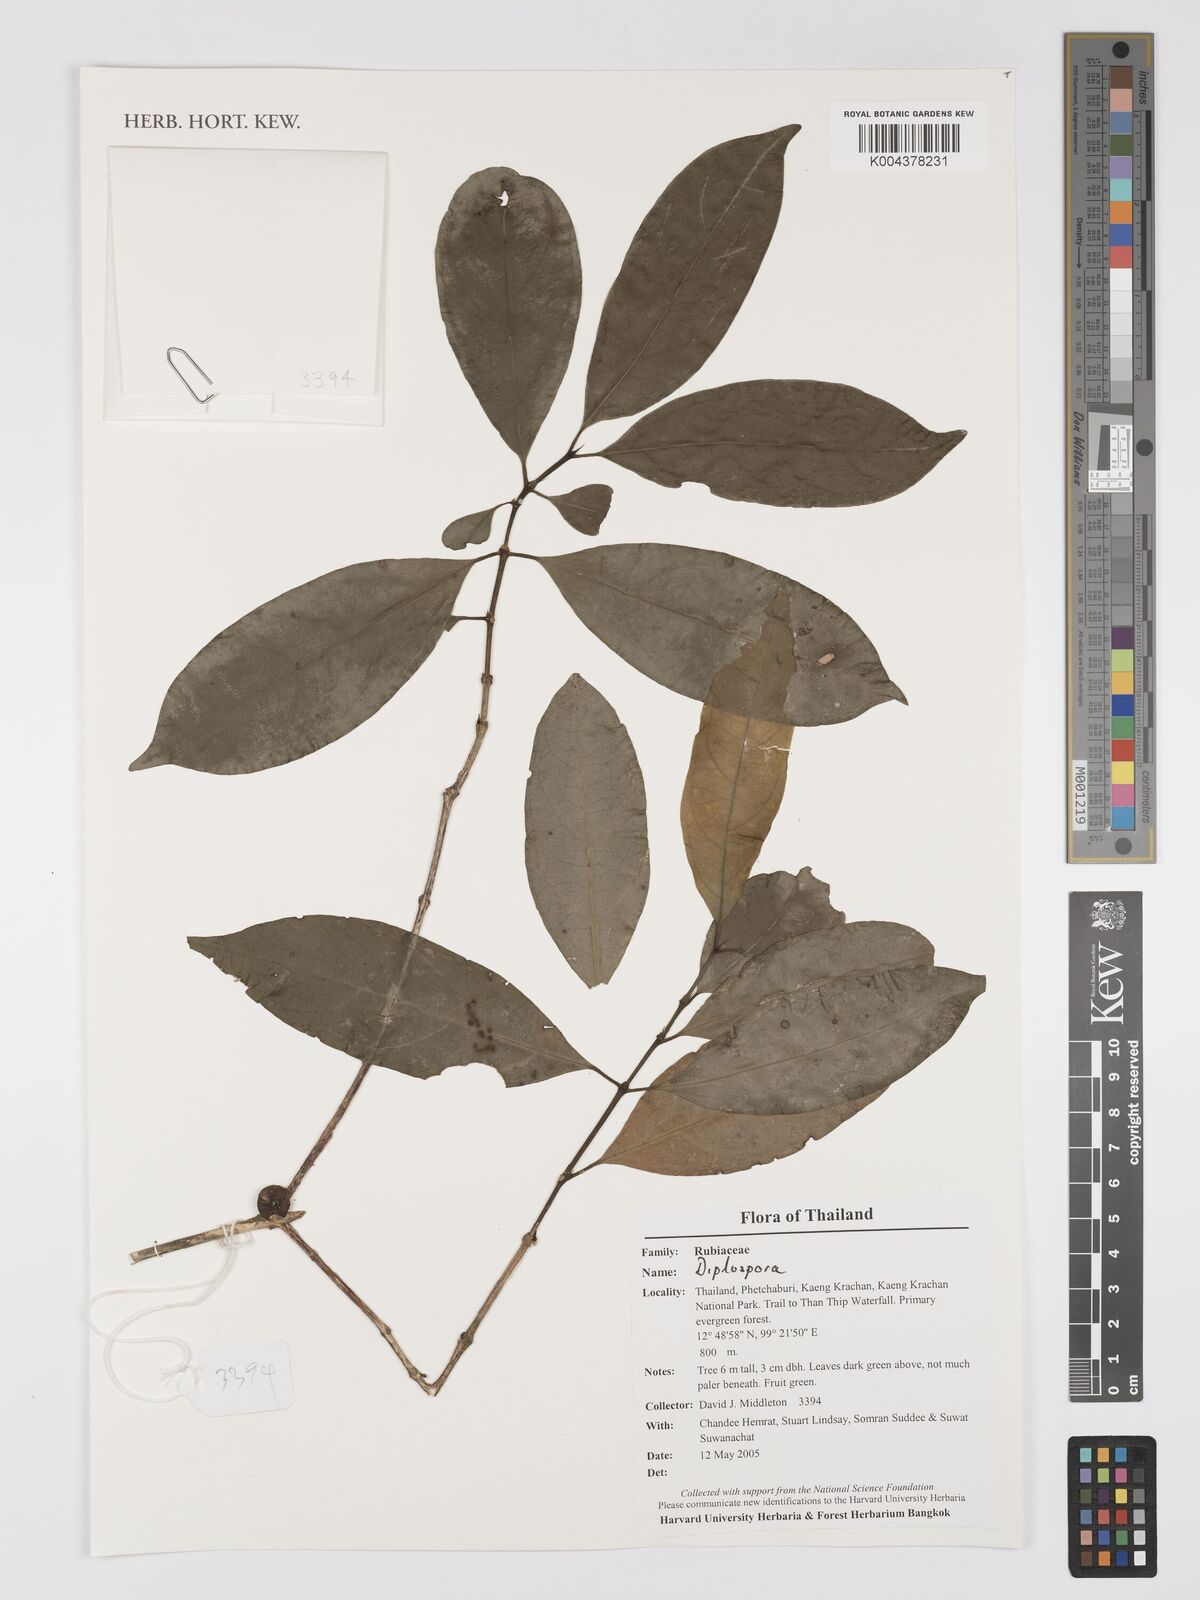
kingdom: Plantae
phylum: Tracheophyta
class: Magnoliopsida
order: Gentianales
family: Rubiaceae
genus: Diplospora
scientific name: Diplospora
